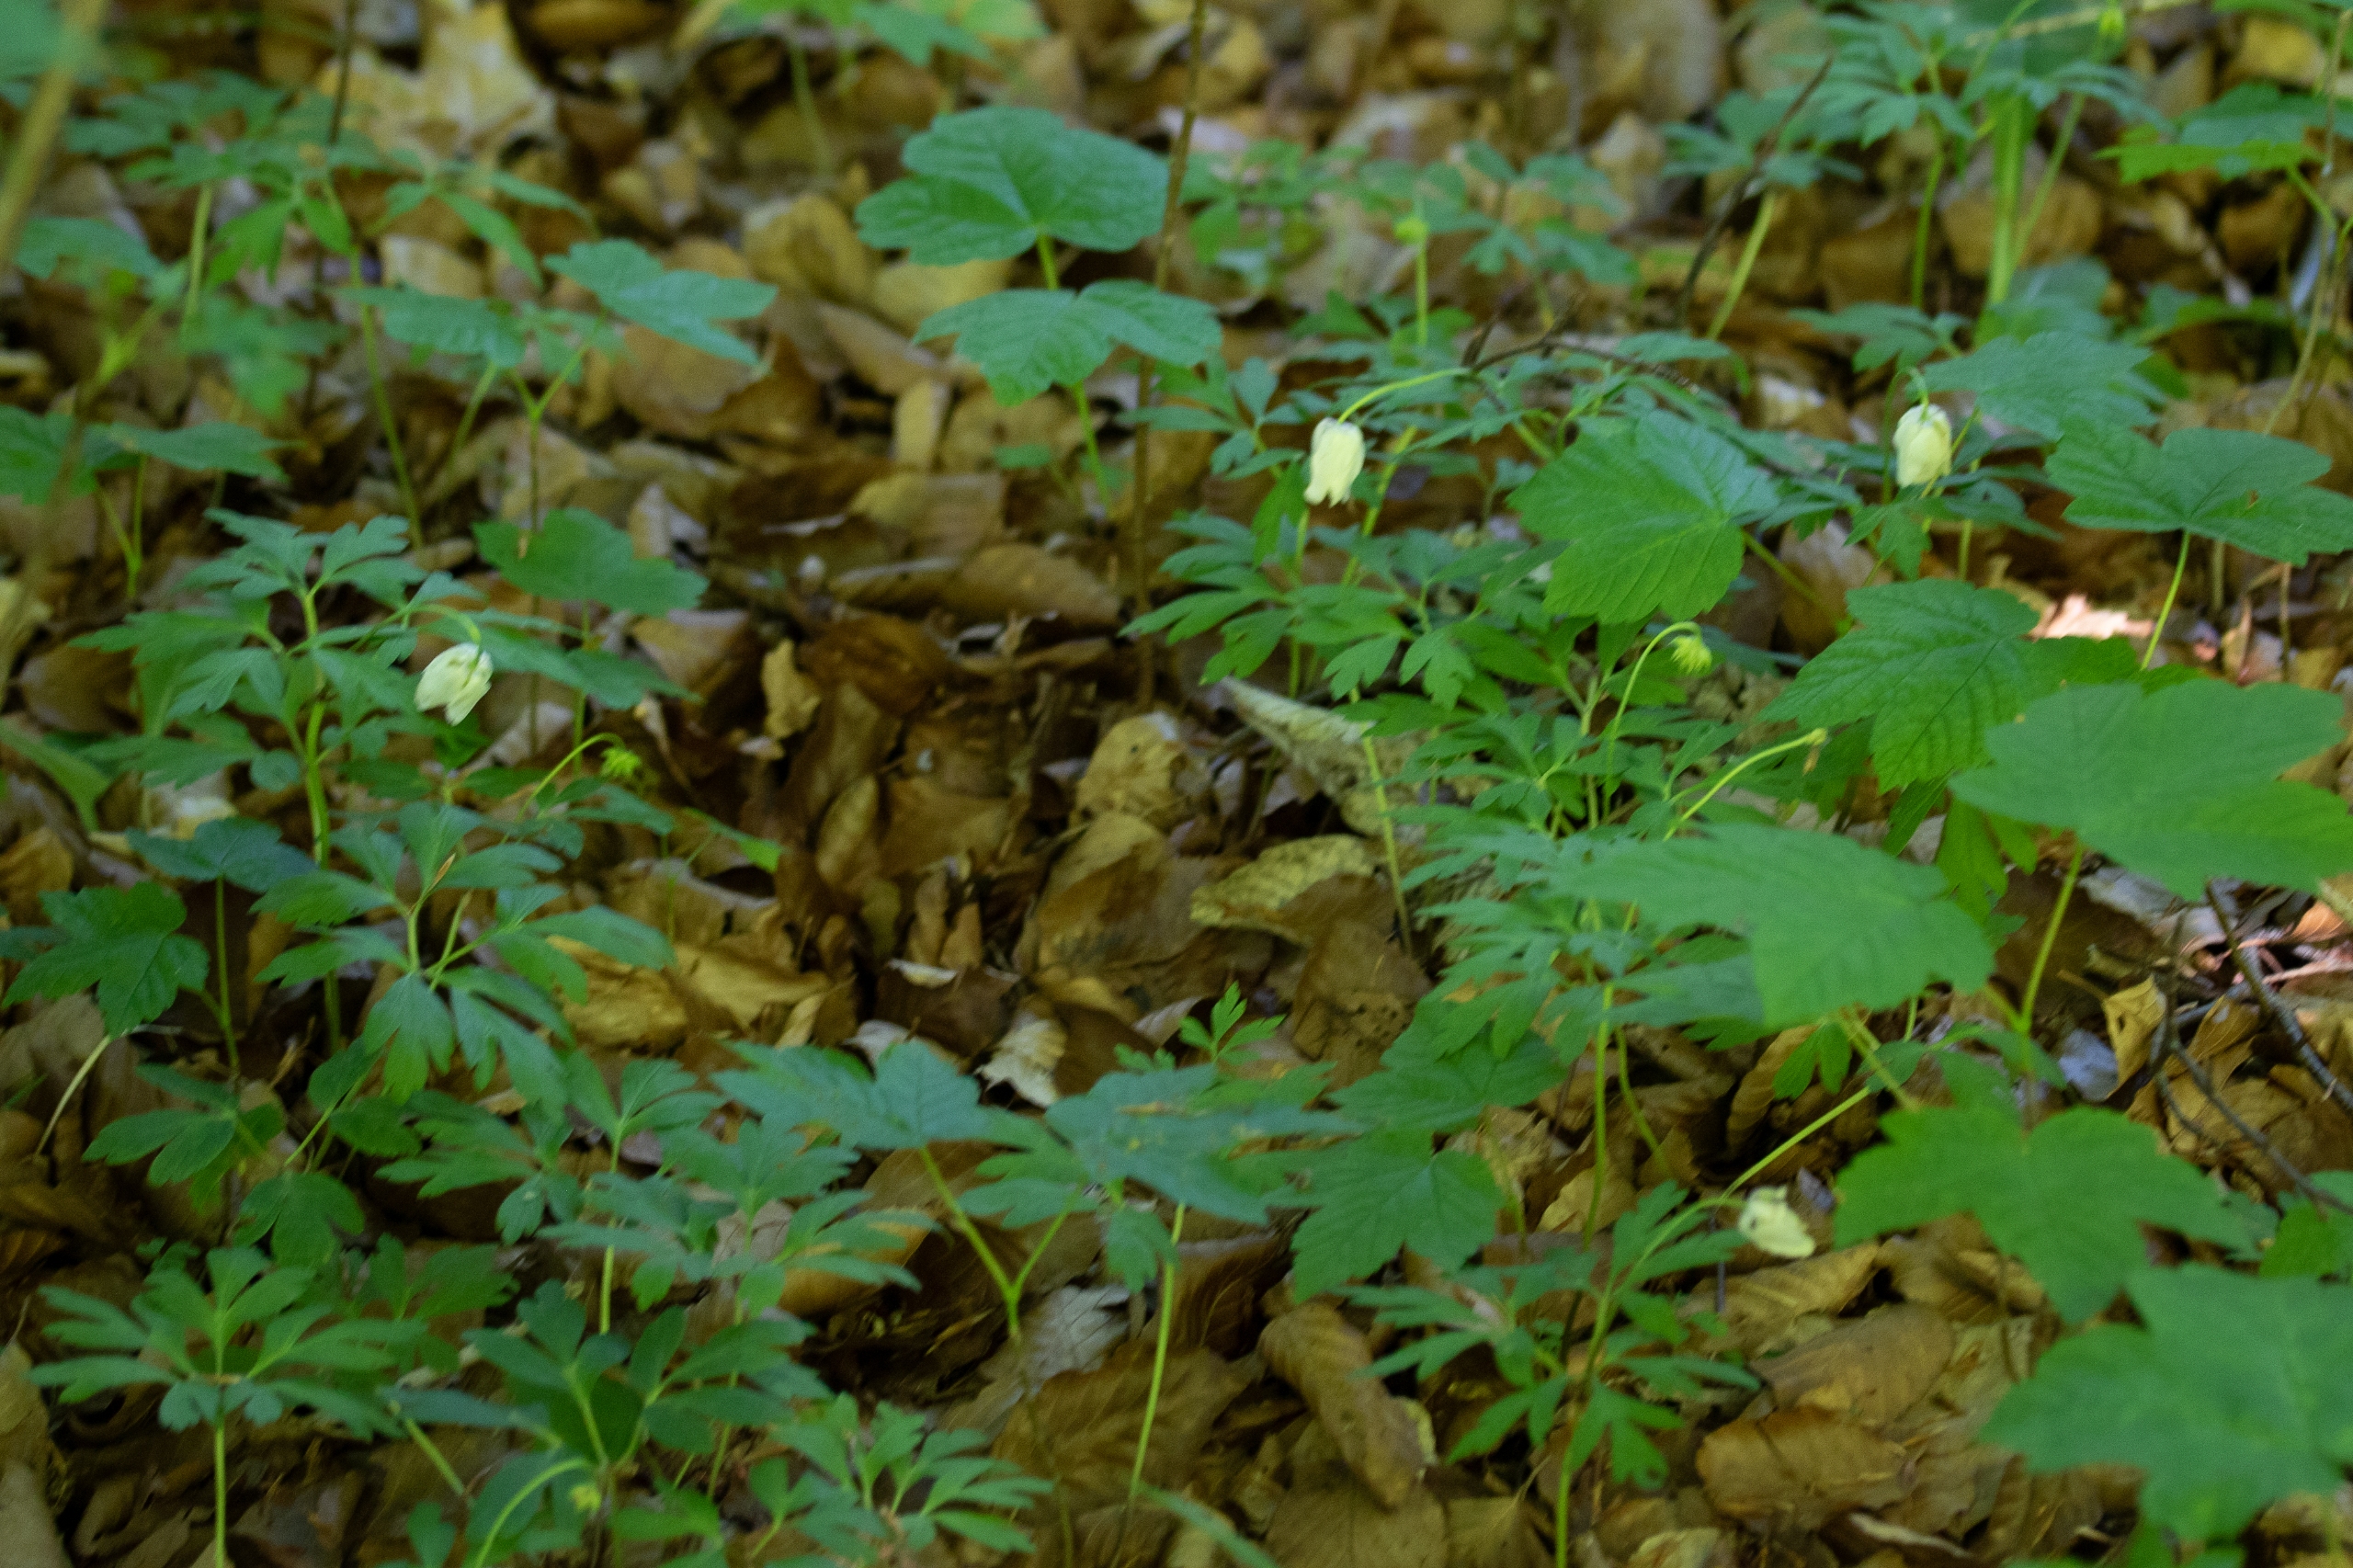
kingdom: Plantae
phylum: Tracheophyta
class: Magnoliopsida
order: Ranunculales
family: Ranunculaceae
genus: Anemone
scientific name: Anemone nemorosa
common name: Hvid anemone
